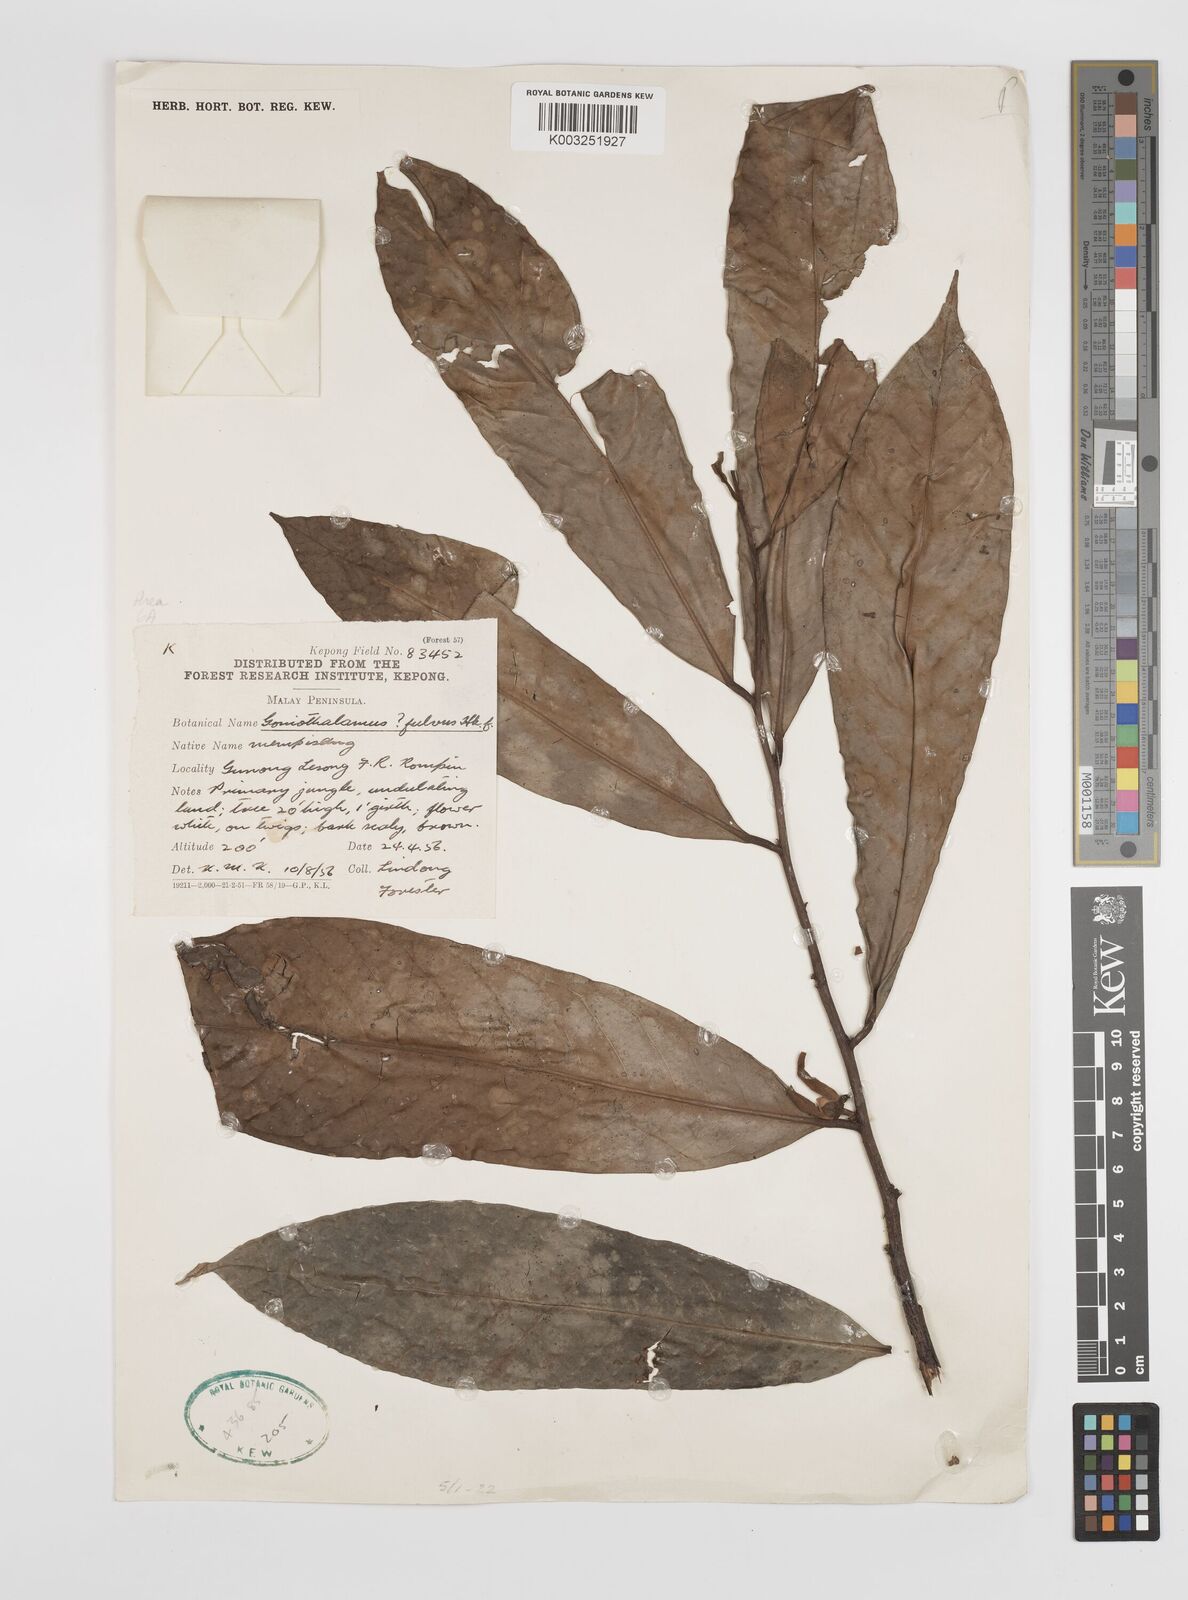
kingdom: Plantae
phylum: Tracheophyta
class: Magnoliopsida
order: Magnoliales
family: Annonaceae
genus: Goniothalamus
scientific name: Goniothalamus fulvus
